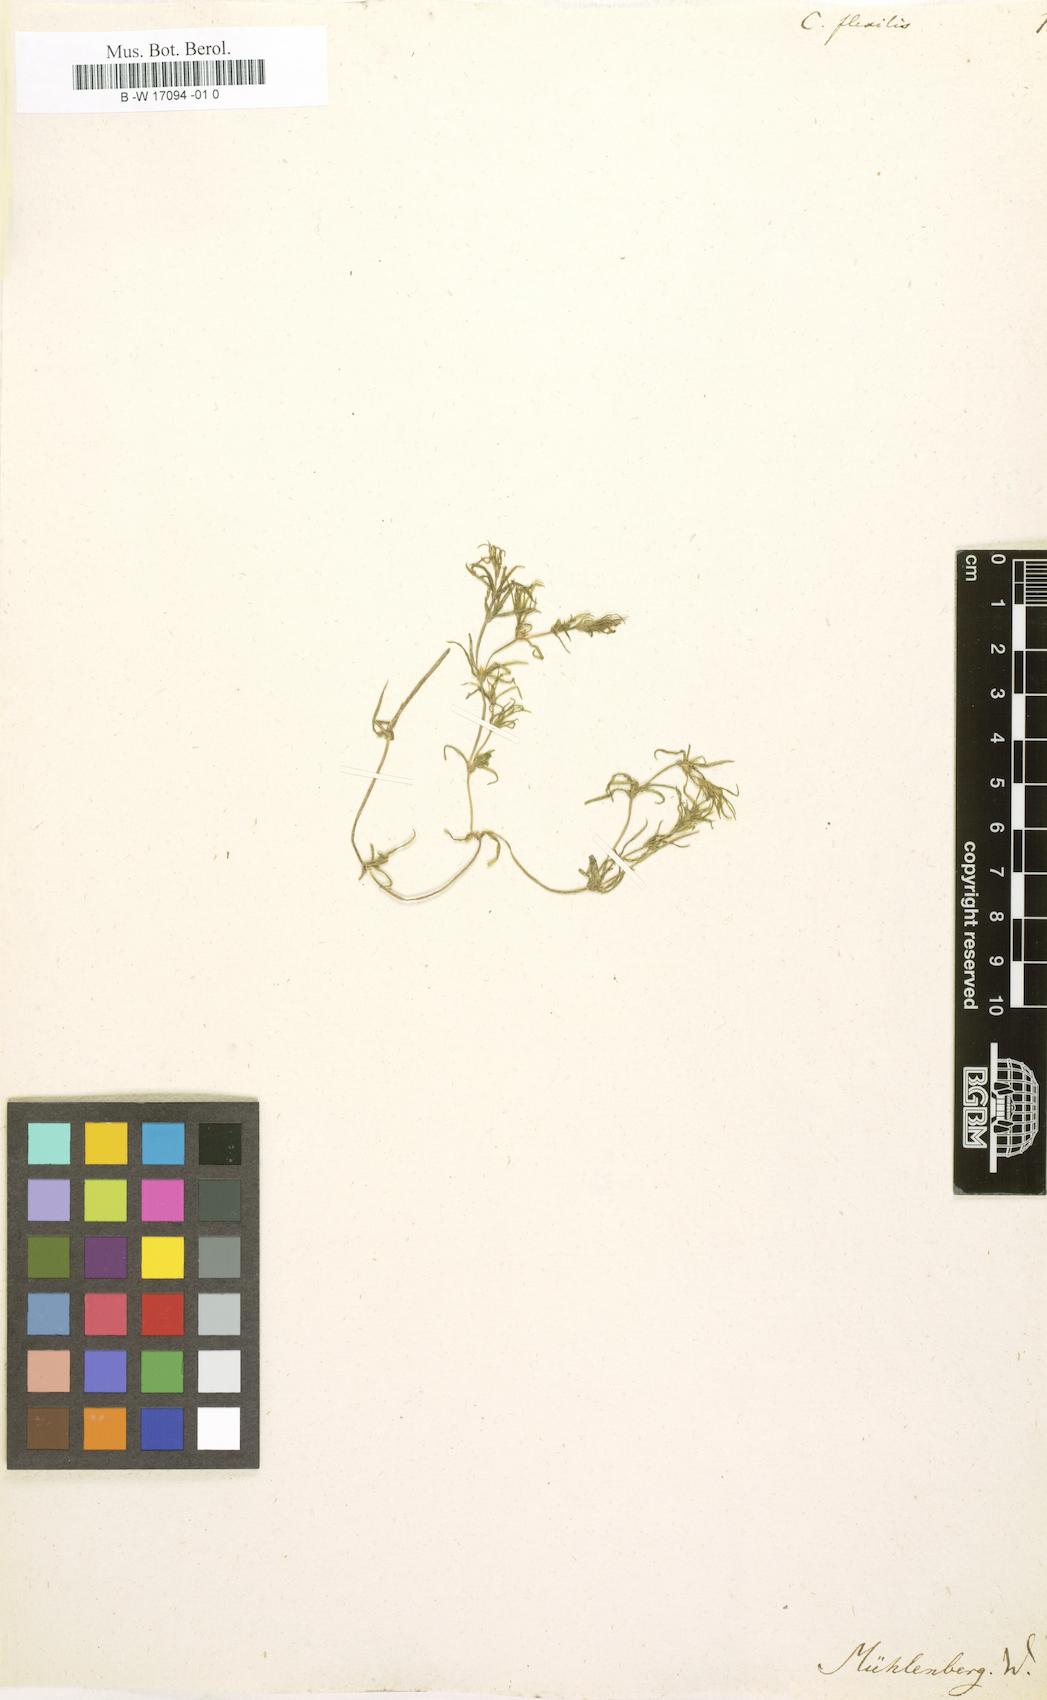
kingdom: Plantae
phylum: Tracheophyta
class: Liliopsida
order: Alismatales
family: Hydrocharitaceae
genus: Najas
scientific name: Najas flexilis
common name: Slender naiad
